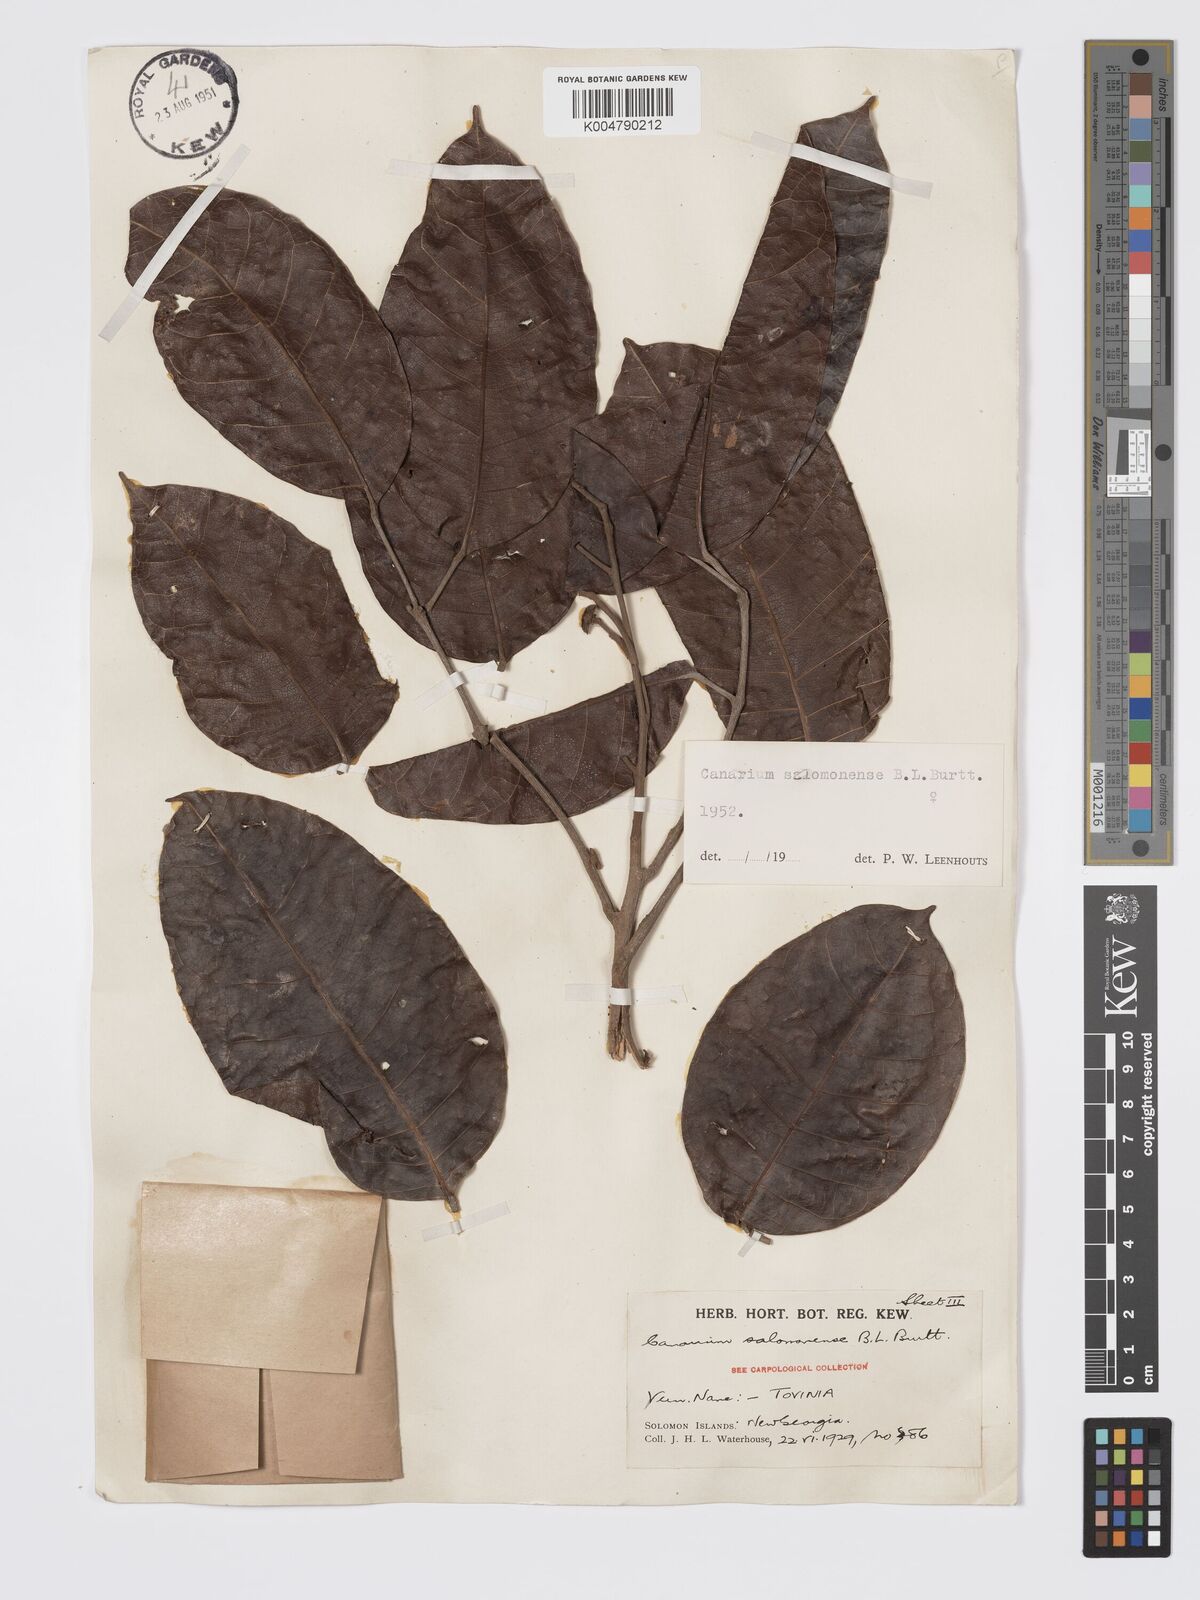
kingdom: Plantae
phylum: Tracheophyta
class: Magnoliopsida
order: Sapindales
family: Burseraceae
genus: Canarium
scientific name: Canarium salomonense
